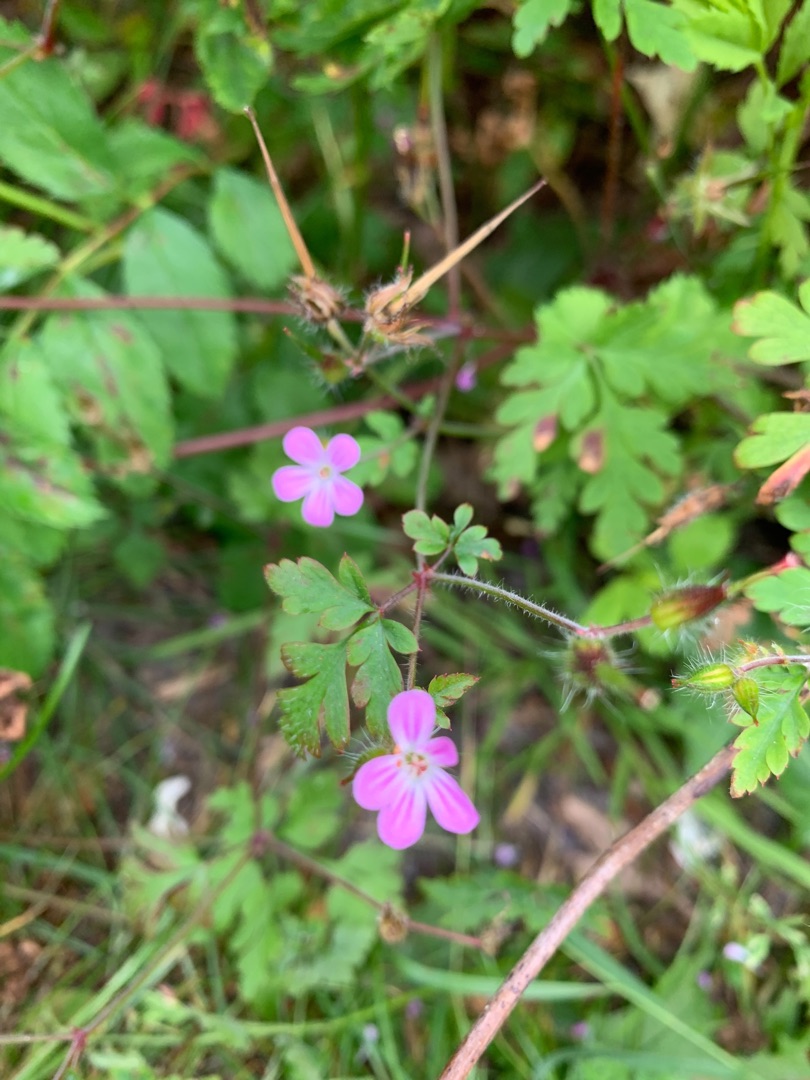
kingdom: Plantae
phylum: Tracheophyta
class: Magnoliopsida
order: Geraniales
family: Geraniaceae
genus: Geranium
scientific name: Geranium robertianum
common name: Stinkende storkenæb
